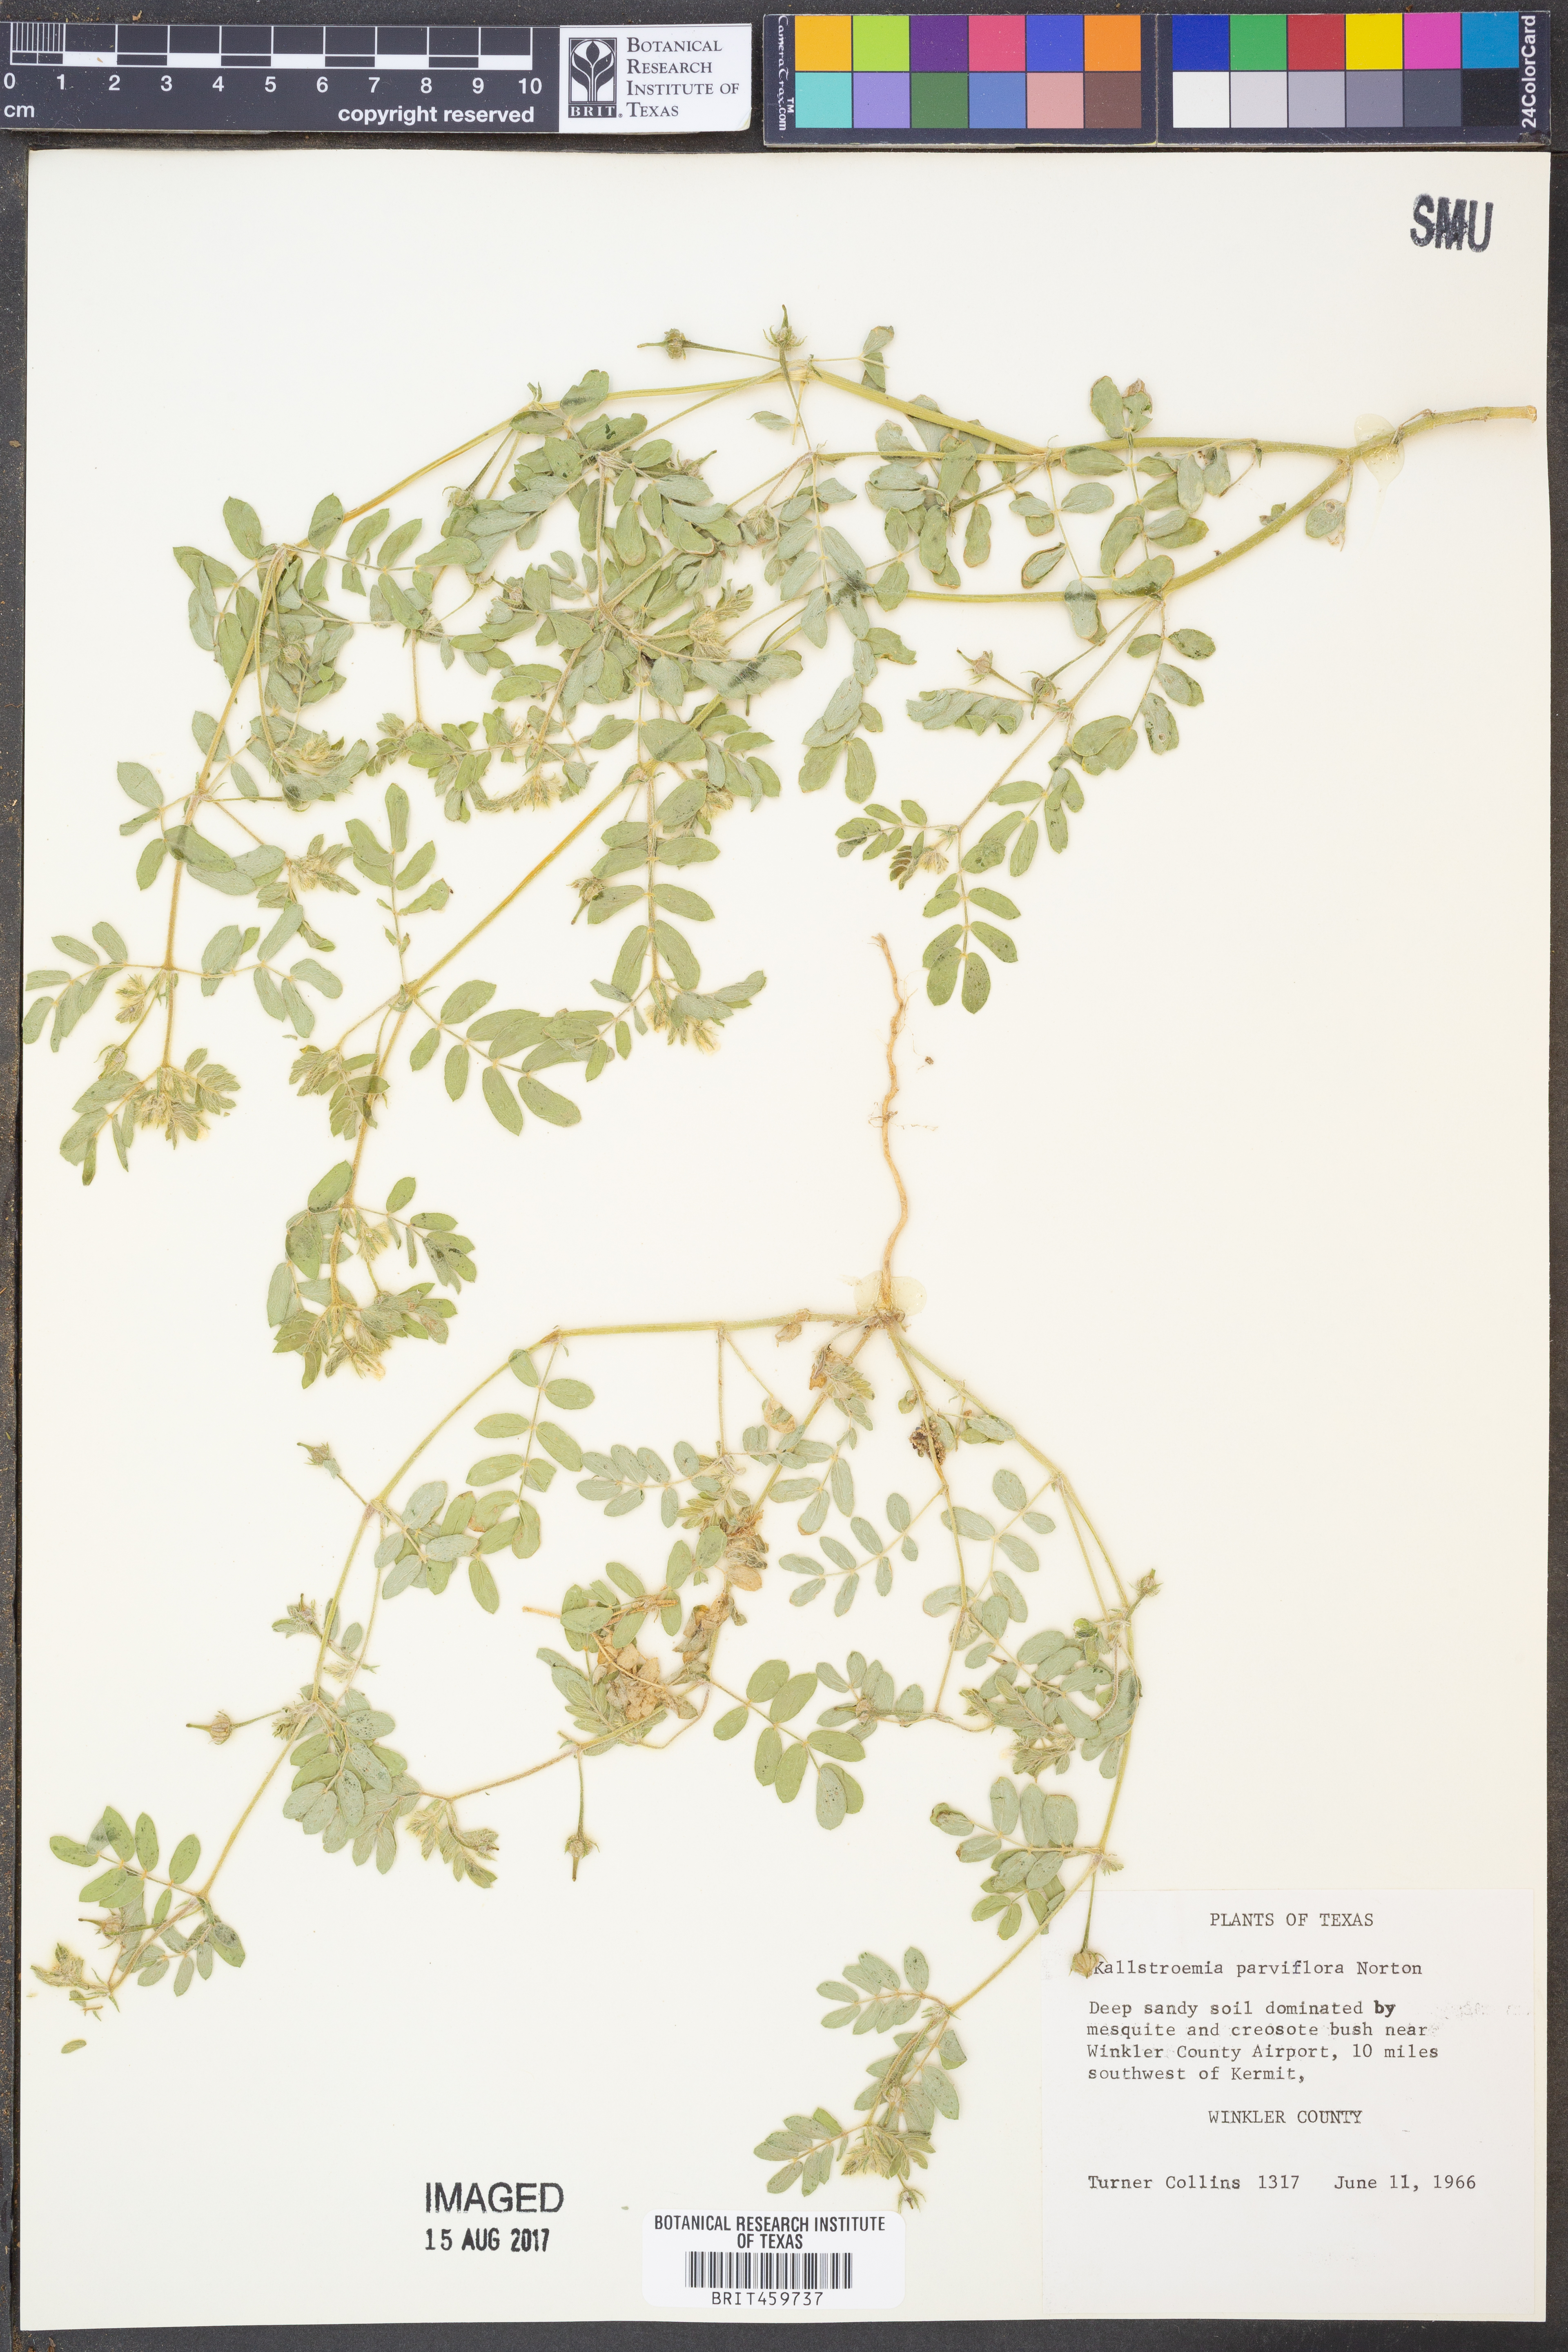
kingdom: Plantae
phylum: Tracheophyta
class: Magnoliopsida
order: Zygophyllales
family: Zygophyllaceae
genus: Kallstroemia
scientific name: Kallstroemia parviflora
